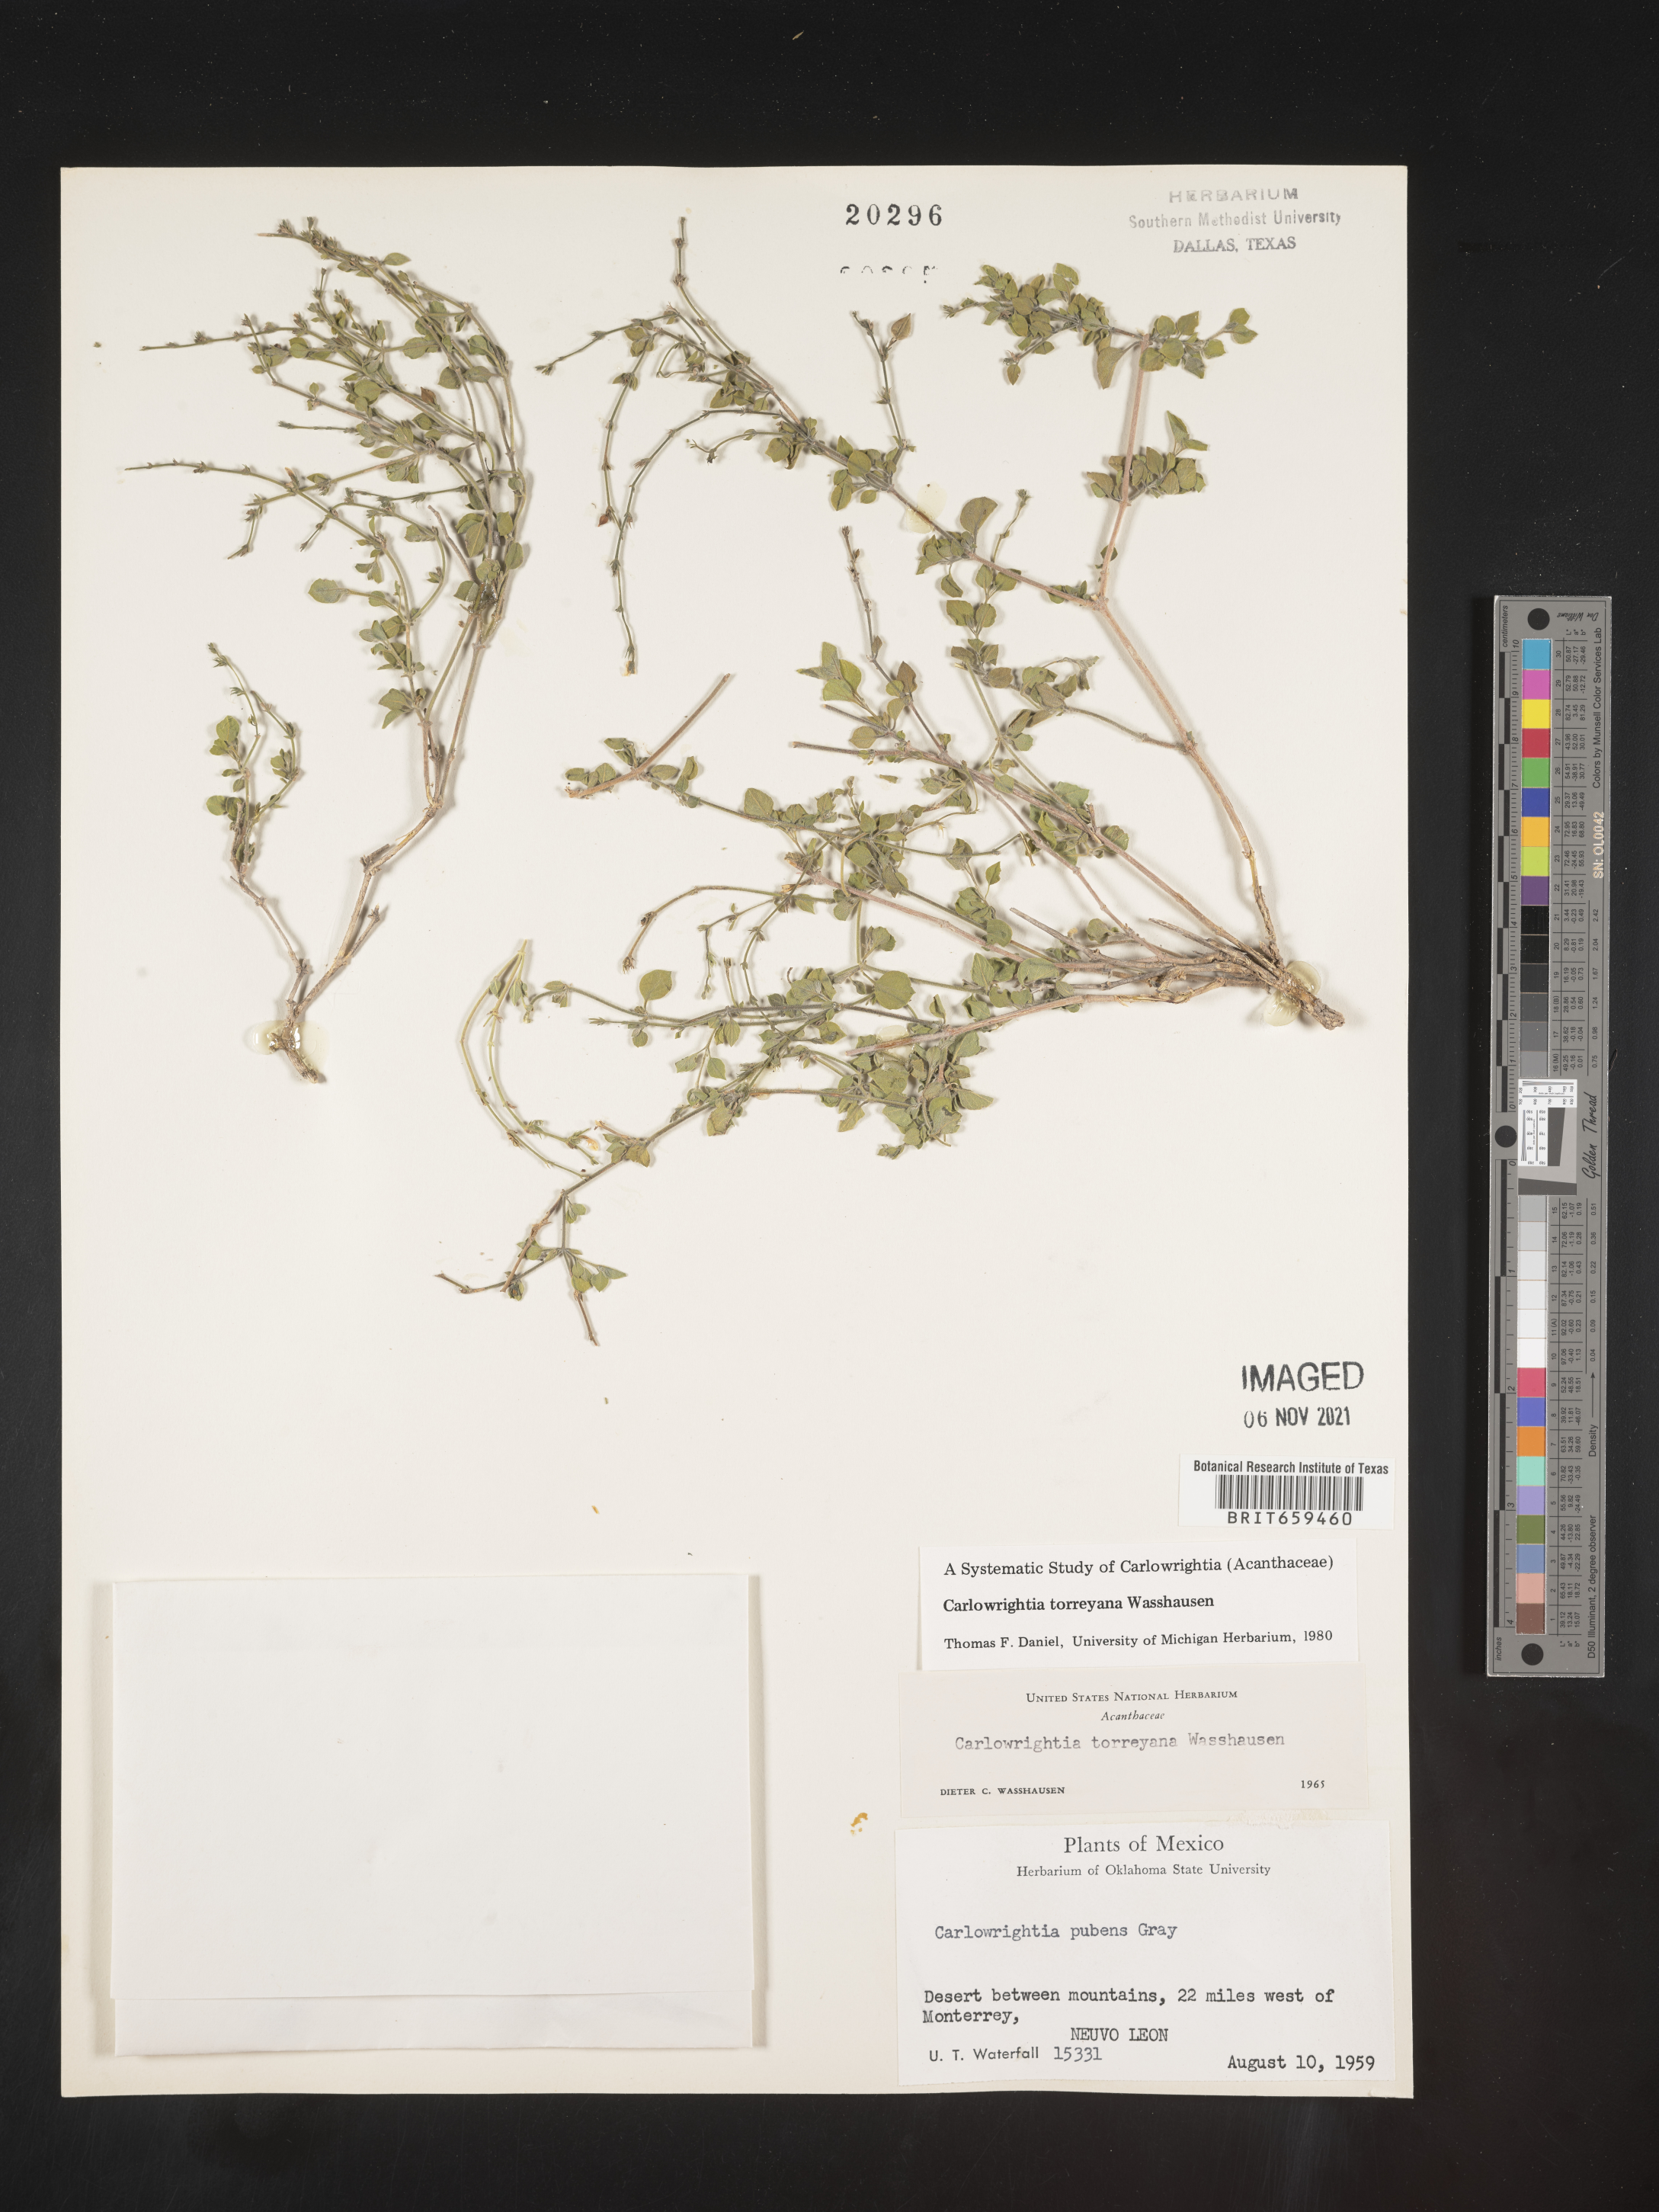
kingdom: Plantae
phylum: Tracheophyta
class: Magnoliopsida
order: Lamiales
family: Acanthaceae
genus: Carlowrightia
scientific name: Carlowrightia
